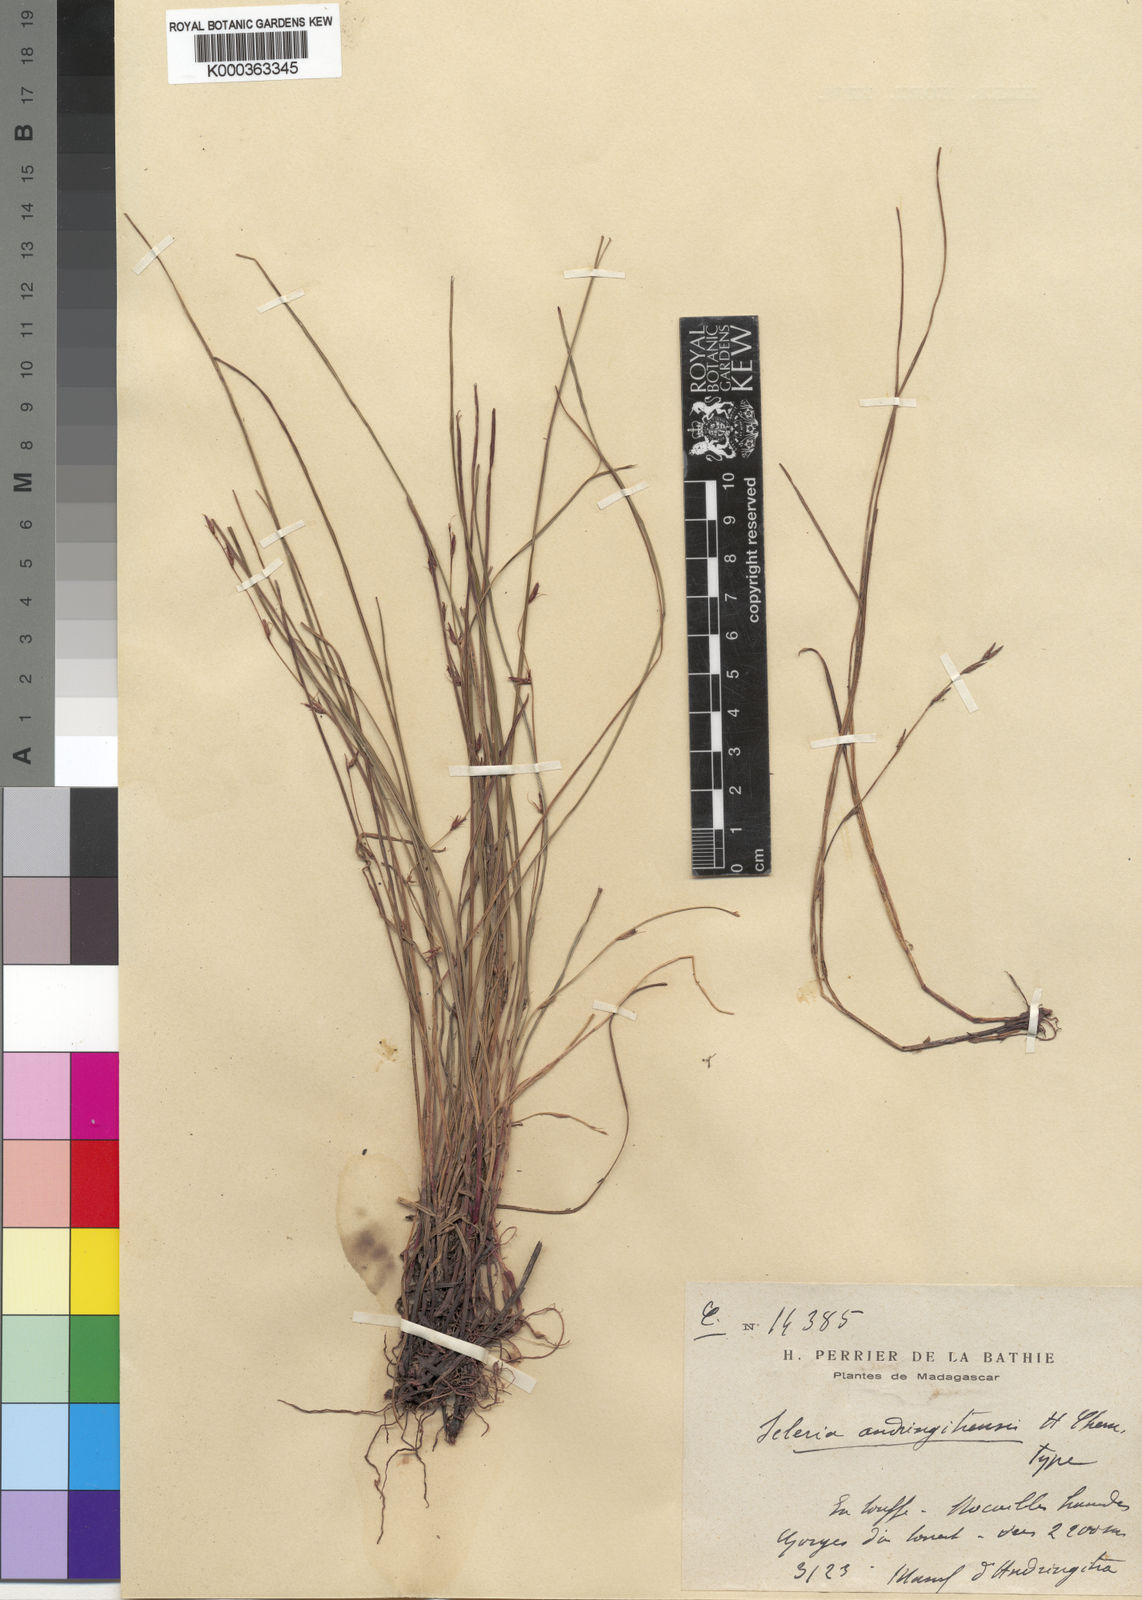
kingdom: Plantae
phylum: Tracheophyta
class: Liliopsida
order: Poales
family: Cyperaceae
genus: Scleria
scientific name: Scleria andringitrensis
